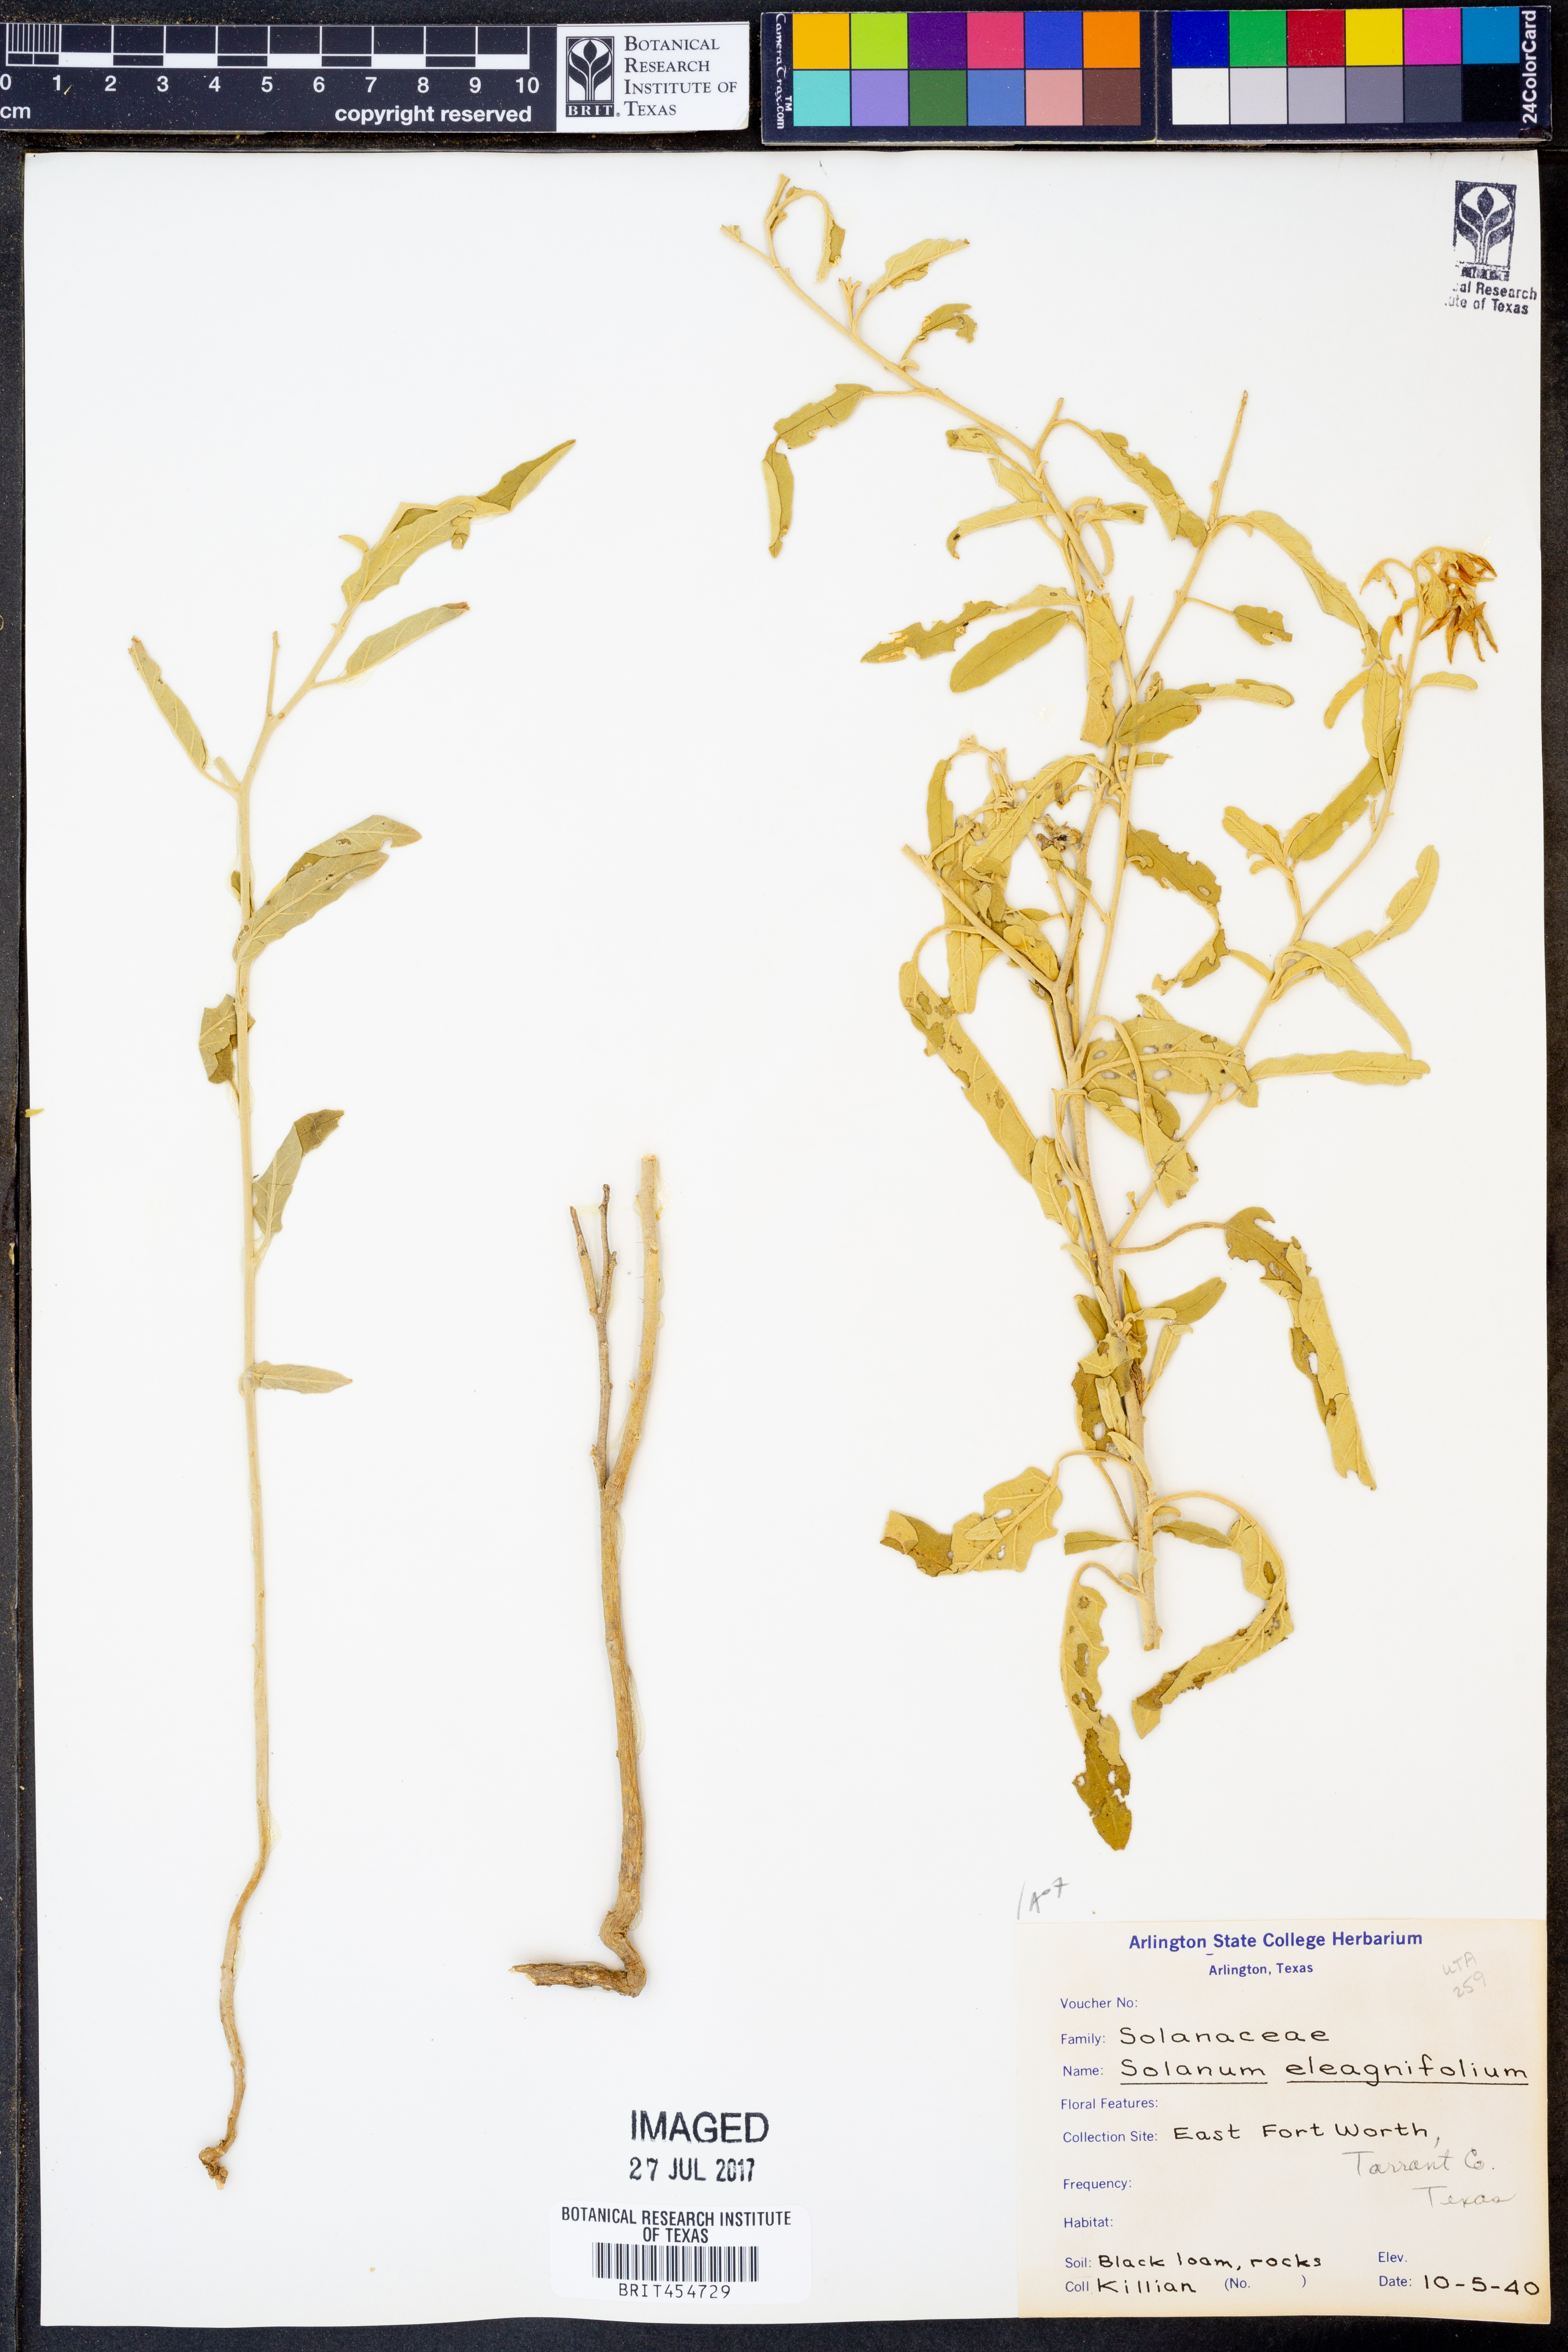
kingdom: Plantae
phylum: Tracheophyta
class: Magnoliopsida
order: Solanales
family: Solanaceae
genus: Solanum
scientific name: Solanum elaeagnifolium
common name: Silverleaf nightshade
